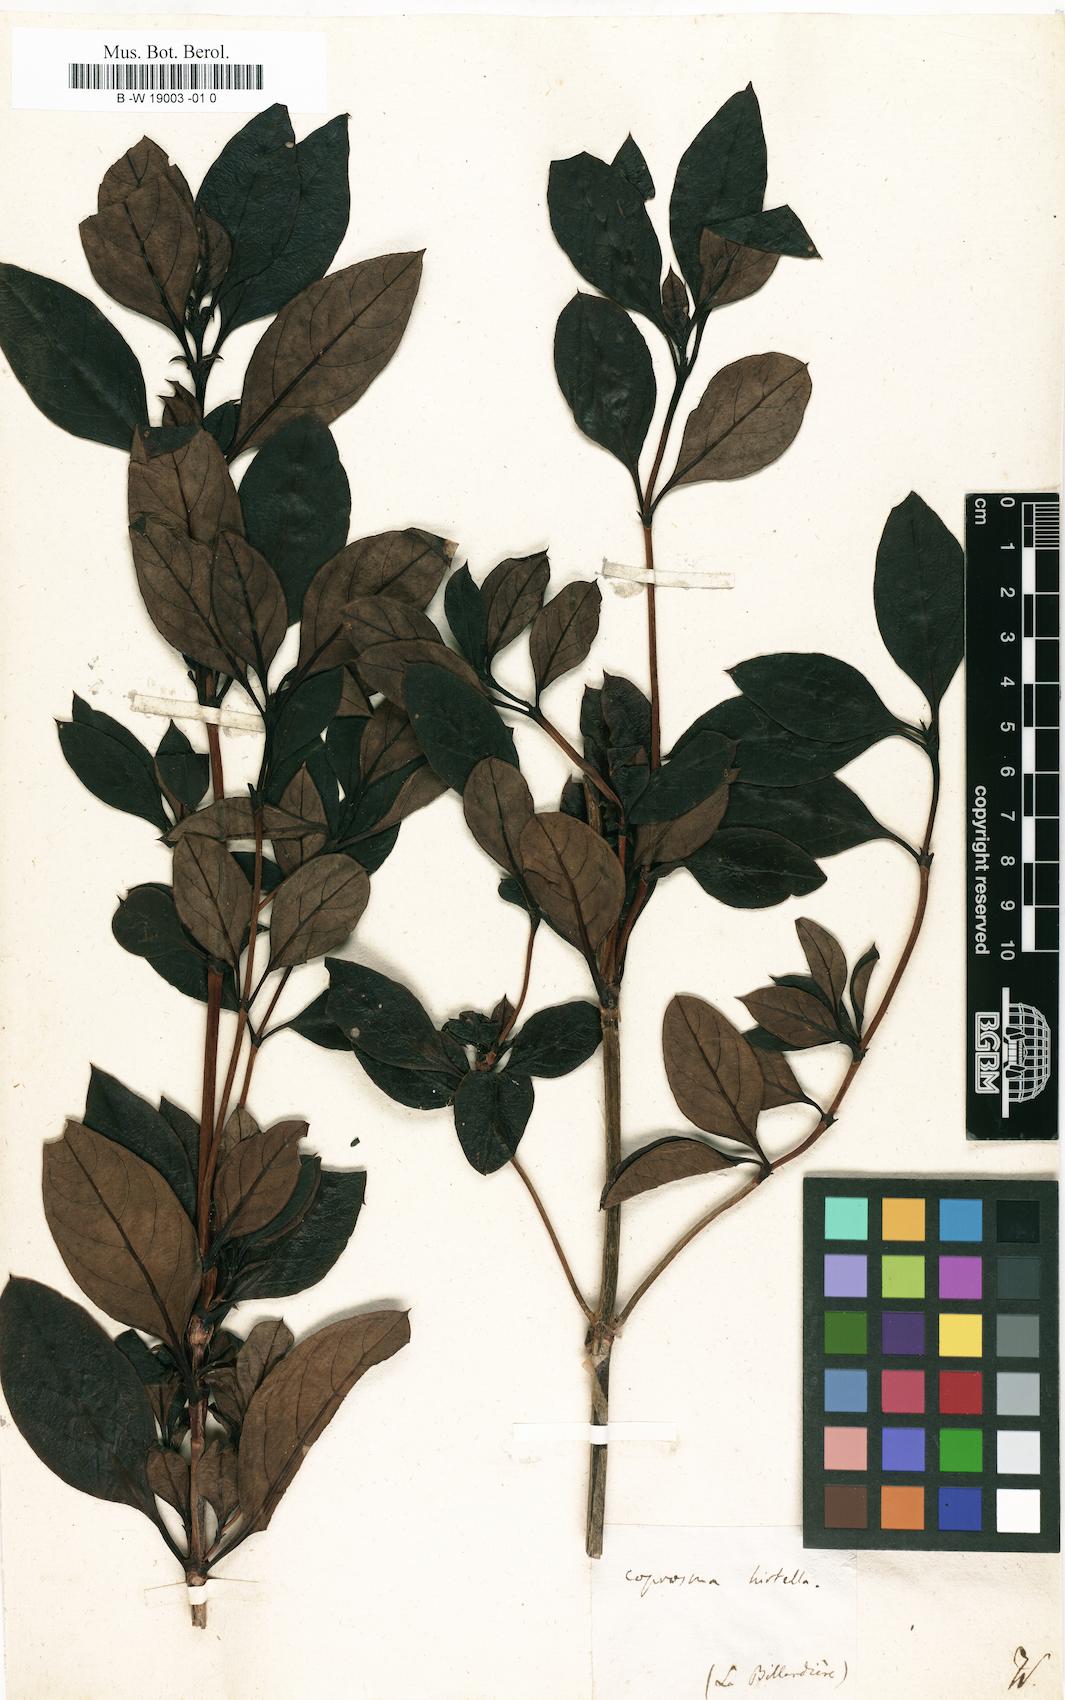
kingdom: Plantae
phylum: Tracheophyta
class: Magnoliopsida
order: Gentianales
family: Rubiaceae
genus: Coprosma
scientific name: Coprosma hirtella
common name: Rough coprosma
